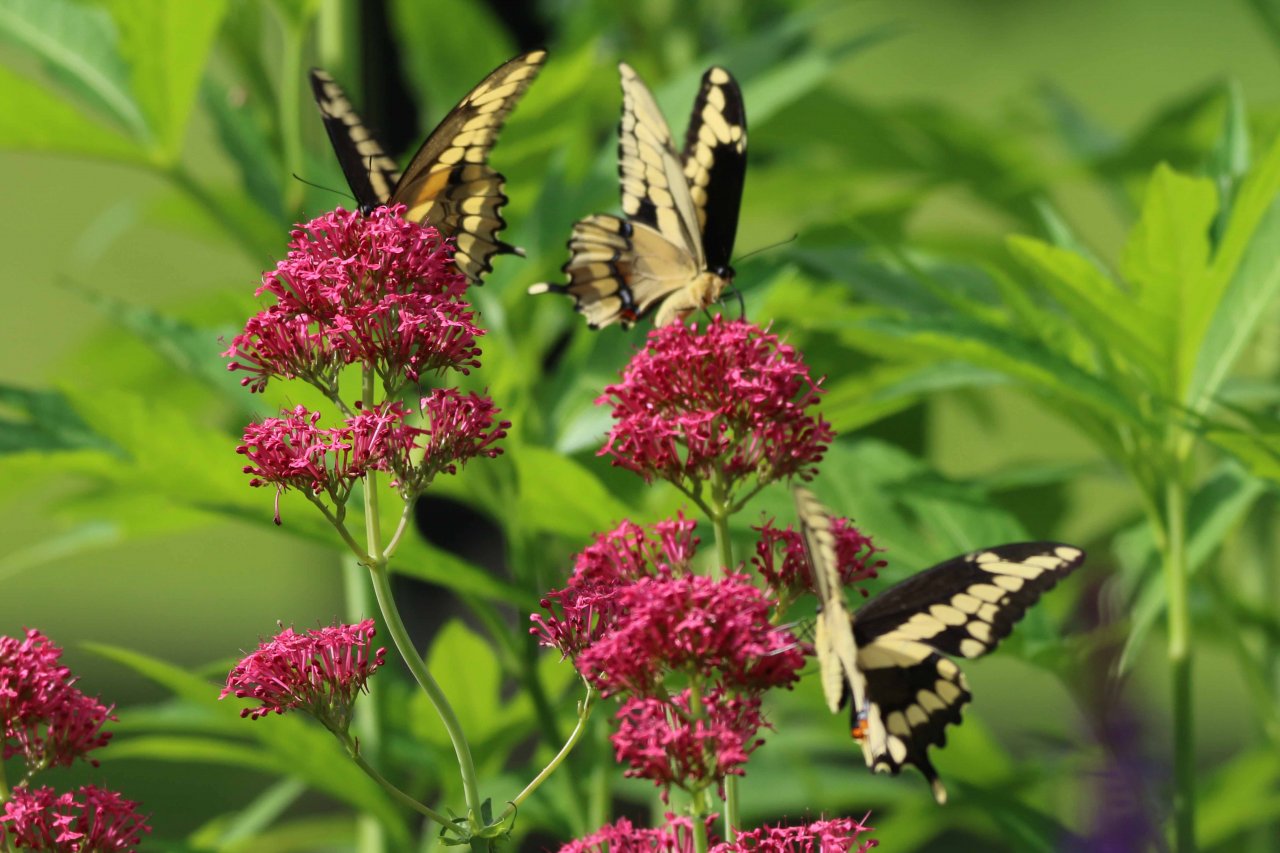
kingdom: Animalia
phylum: Arthropoda
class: Insecta
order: Lepidoptera
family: Papilionidae
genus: Papilio
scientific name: Papilio cresphontes
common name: Eastern Giant Swallowtail
